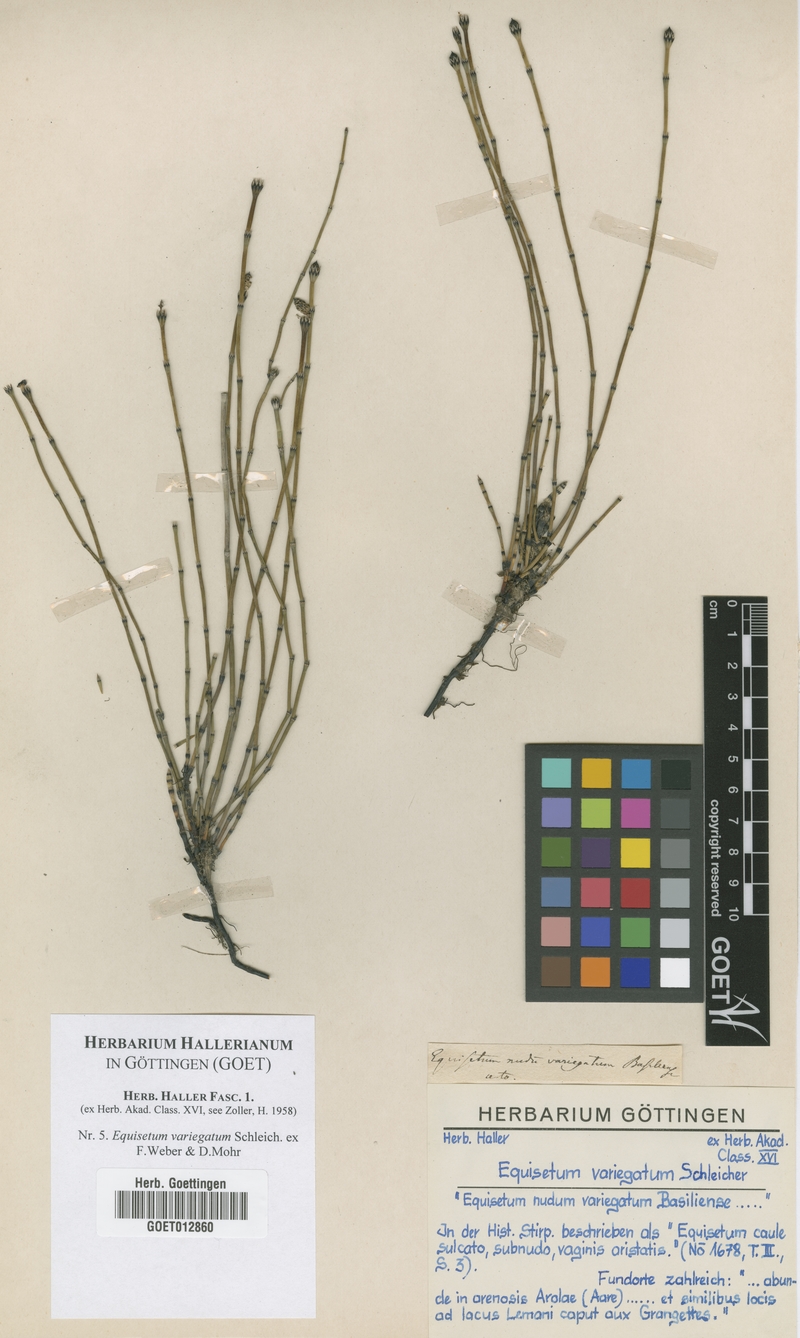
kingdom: Plantae
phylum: Tracheophyta
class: Polypodiopsida
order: Equisetales
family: Equisetaceae
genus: Equisetum
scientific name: Equisetum variegatum
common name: Variegated horsetail
